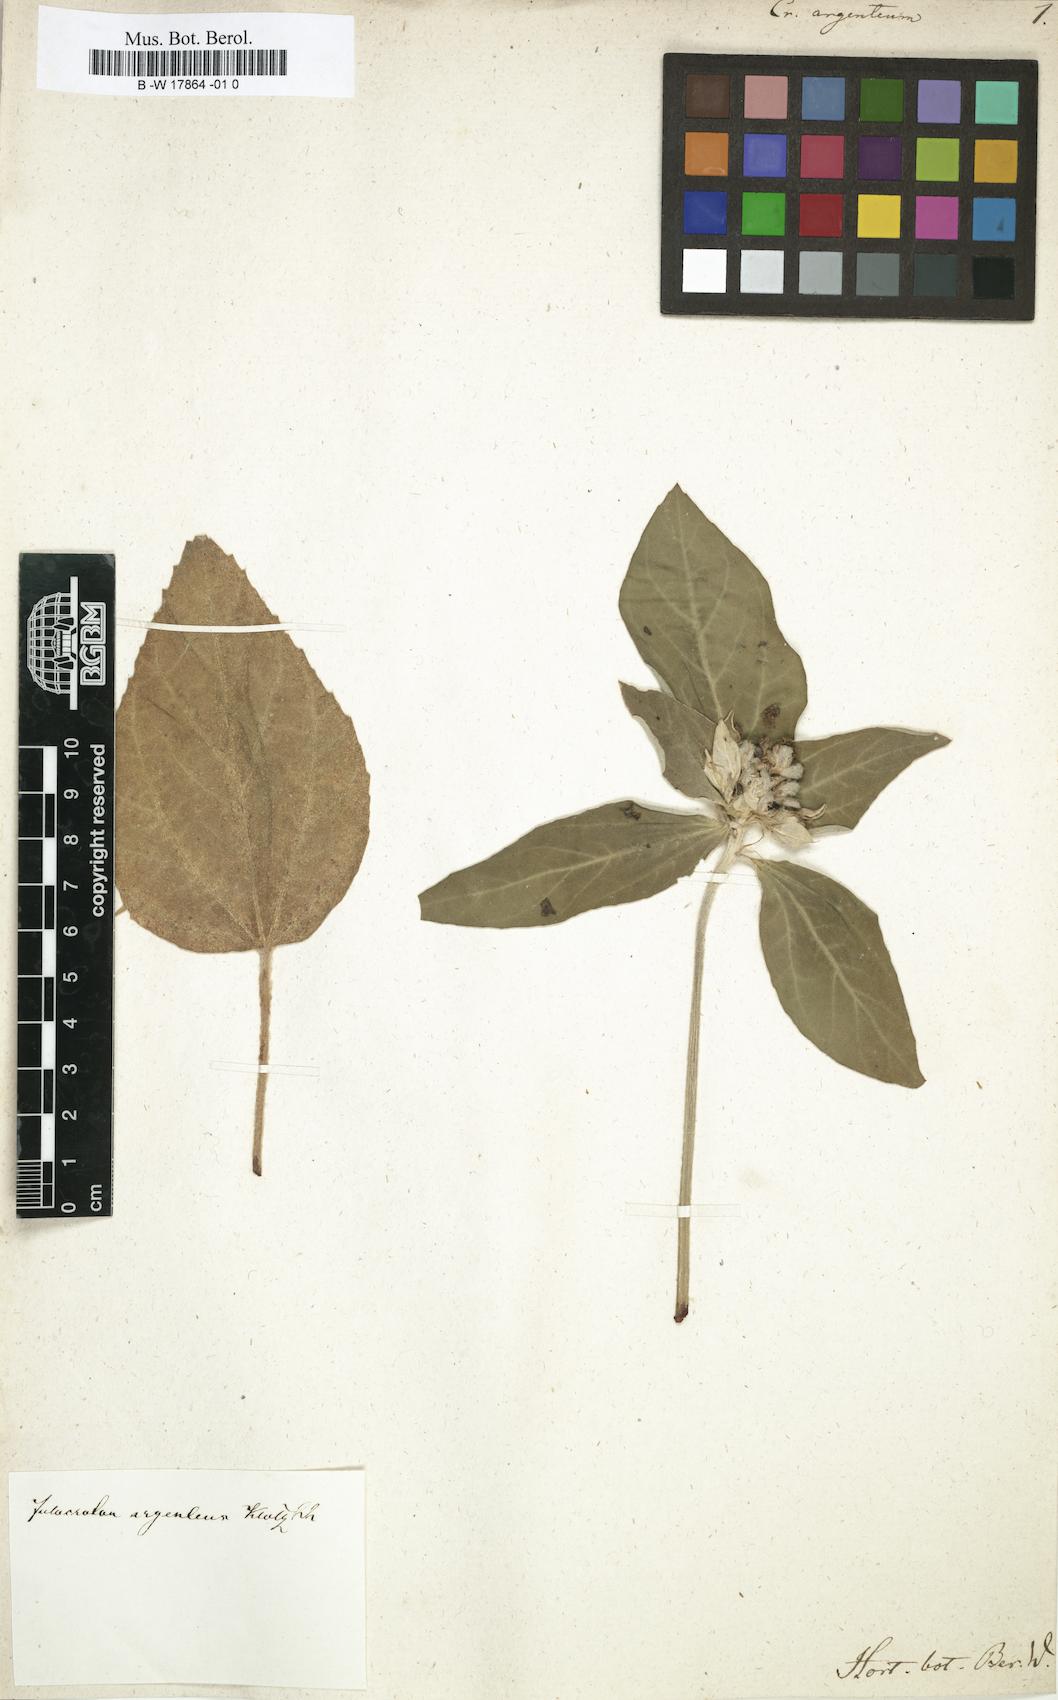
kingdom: Plantae
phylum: Tracheophyta
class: Magnoliopsida
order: Malpighiales
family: Euphorbiaceae
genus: Croton
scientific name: Croton argenteus
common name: Silver july croton
